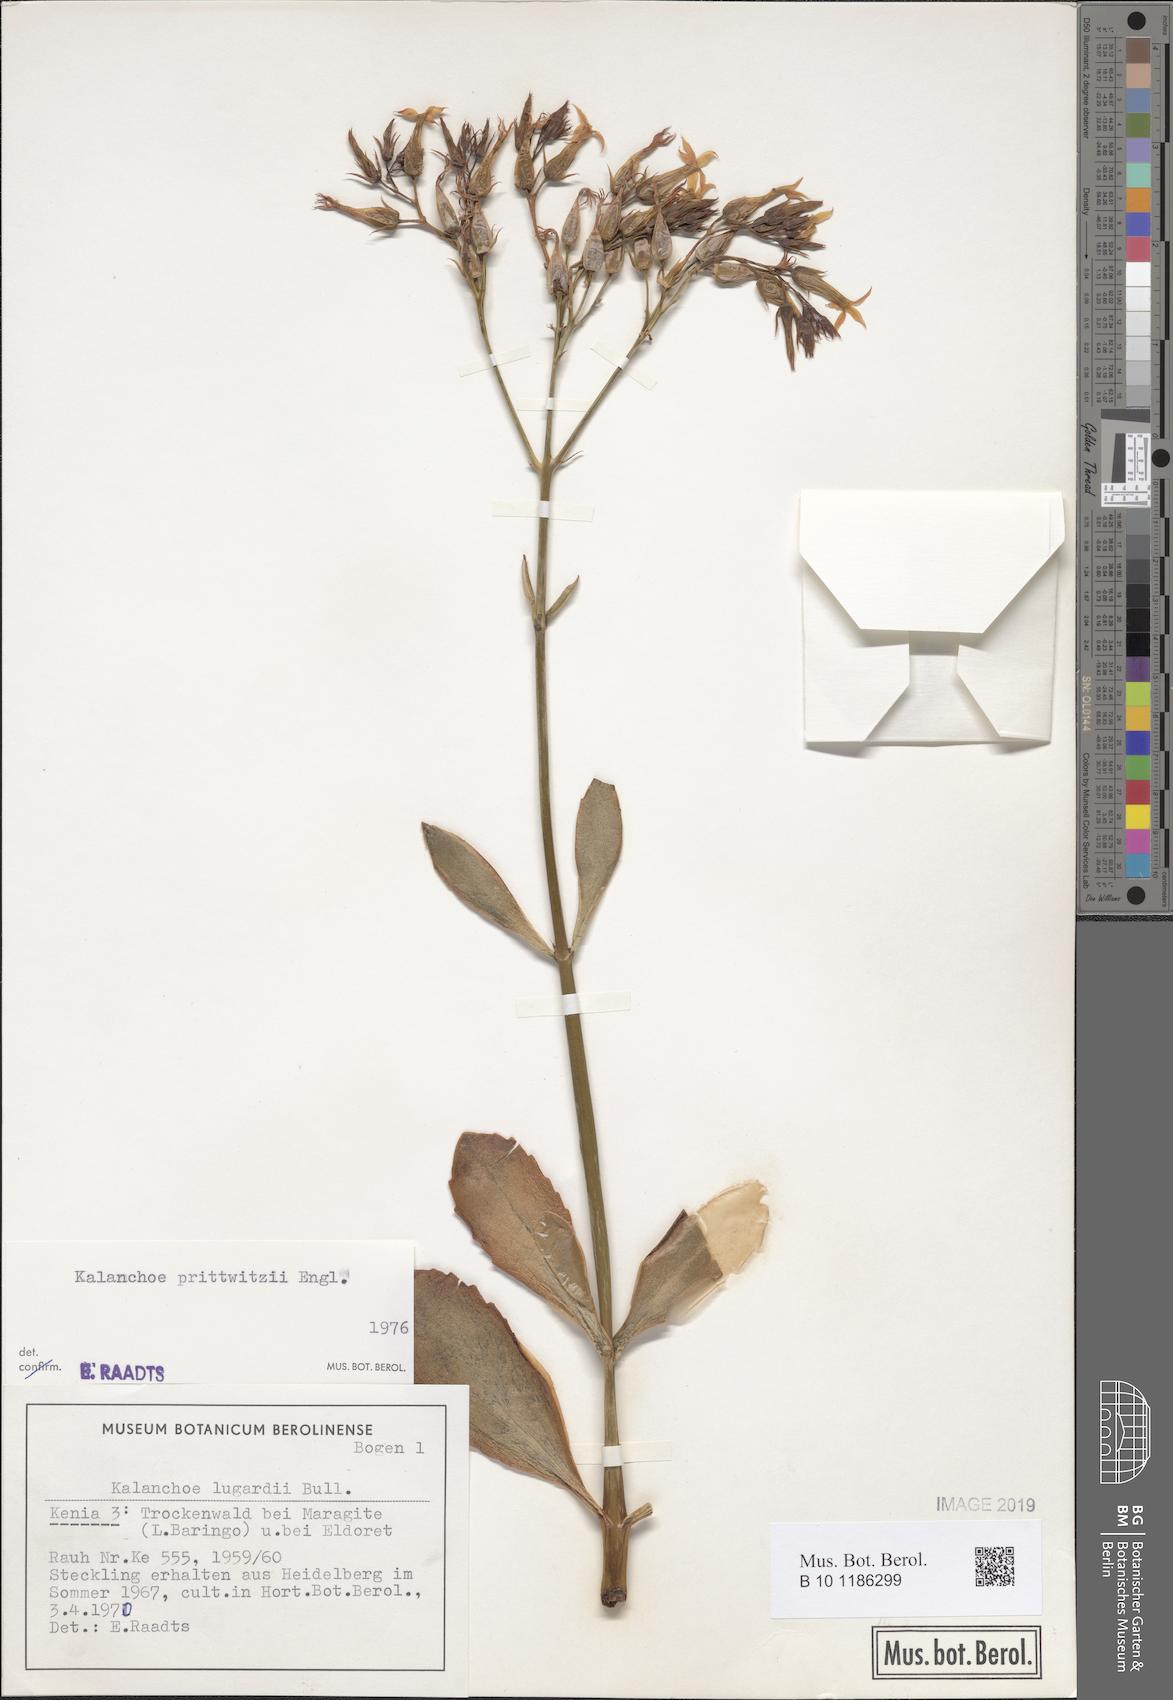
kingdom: Plantae
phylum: Tracheophyta
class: Magnoliopsida
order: Saxifragales
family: Crassulaceae
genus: Kalanchoe
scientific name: Kalanchoe prittwitzii
